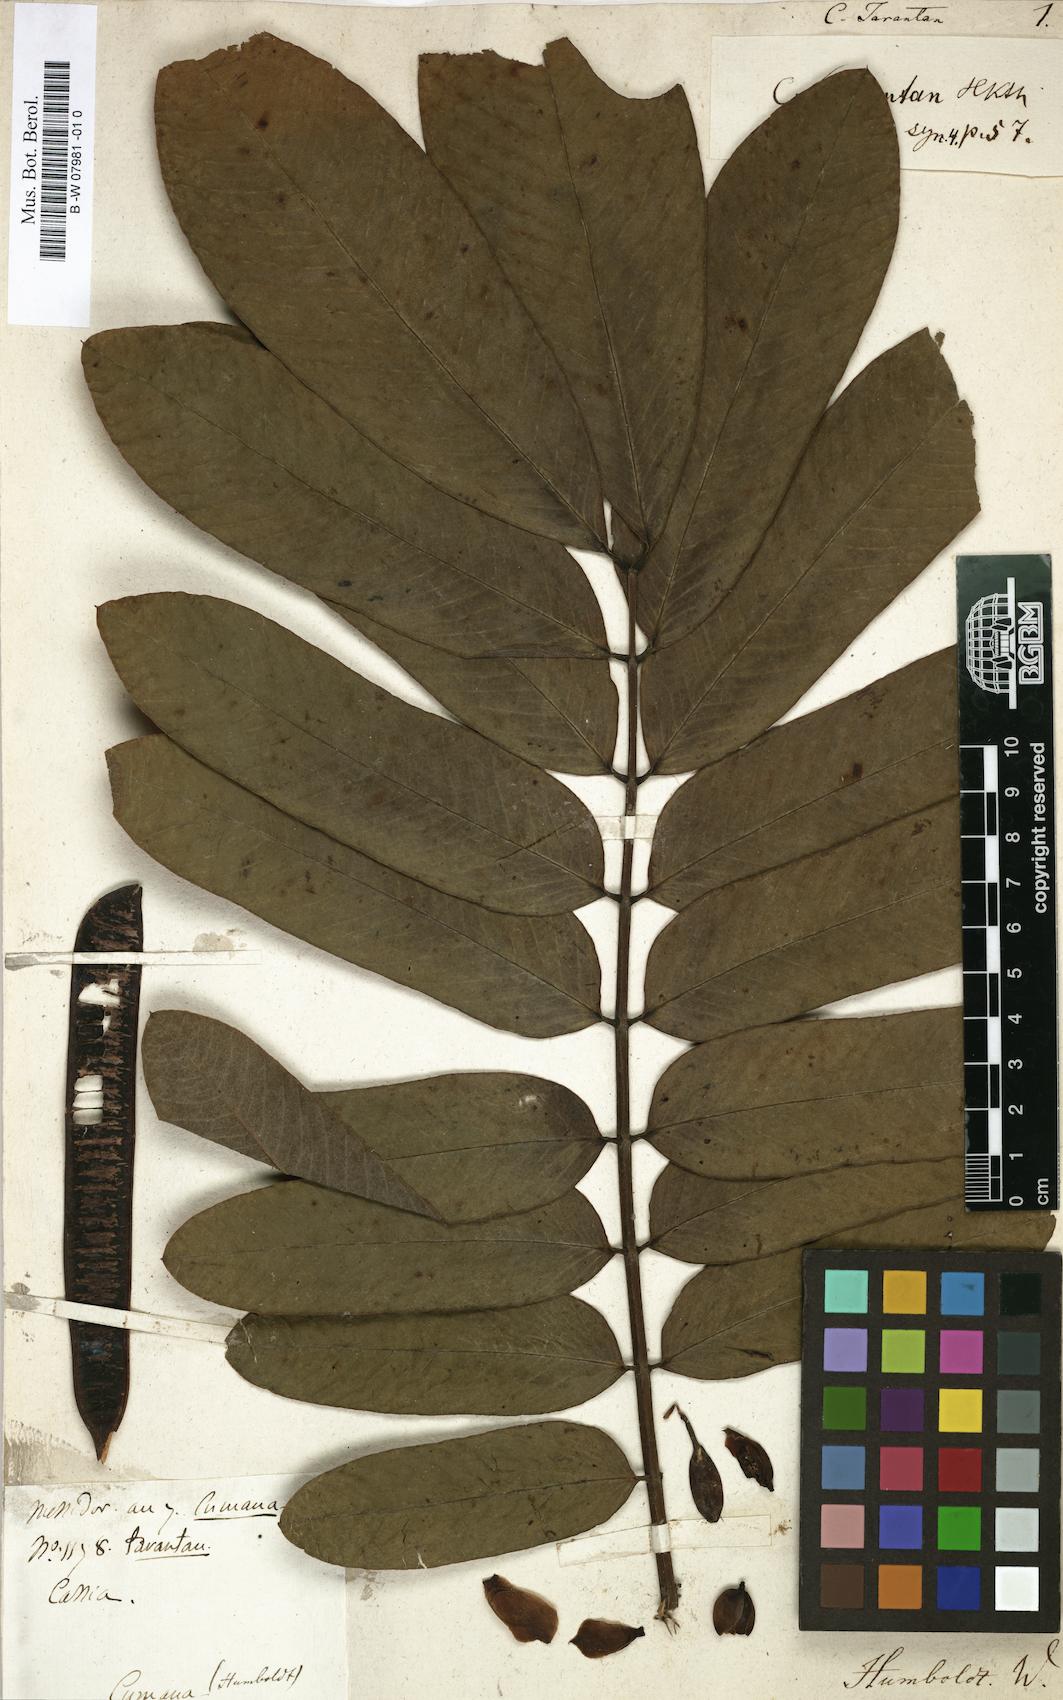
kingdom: Plantae
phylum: Tracheophyta
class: Magnoliopsida
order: Fabales
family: Fabaceae
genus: Senna
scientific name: Senna reticulata
